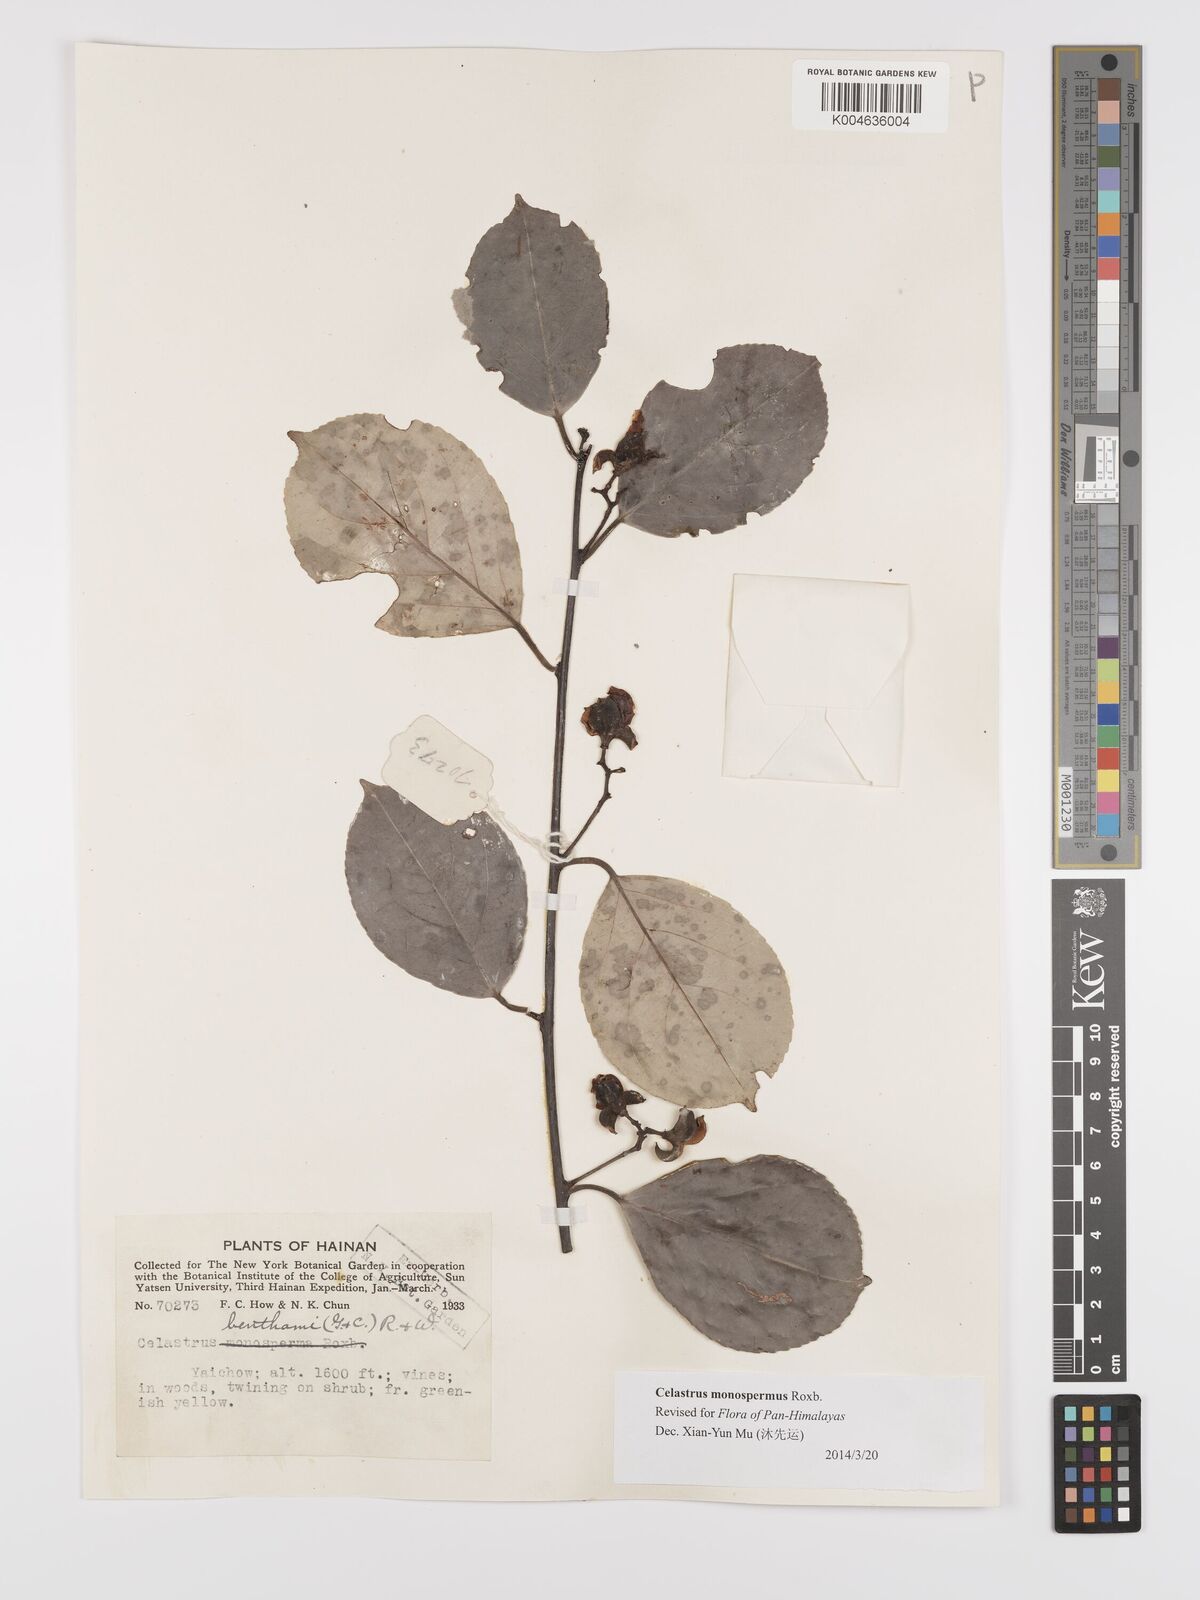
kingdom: Plantae
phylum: Tracheophyta
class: Magnoliopsida
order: Celastrales
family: Celastraceae
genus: Celastrus
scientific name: Celastrus monospermus
